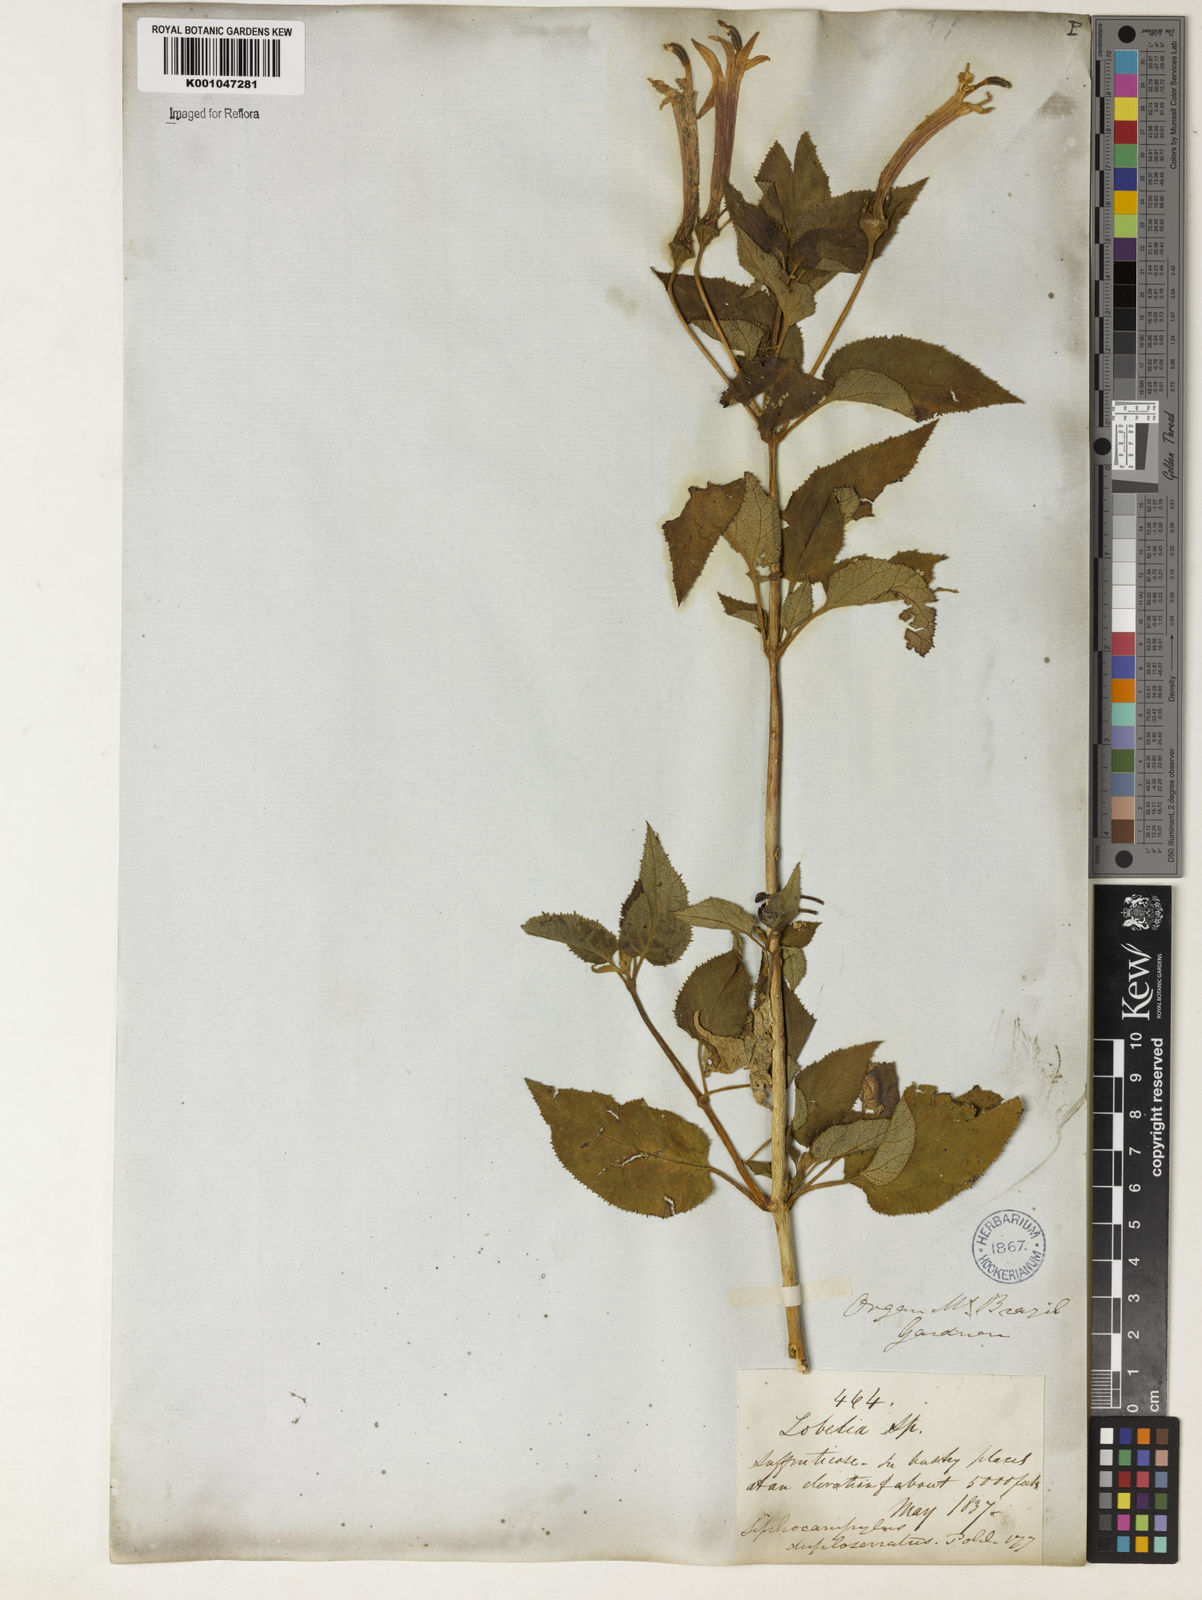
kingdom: Plantae
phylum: Tracheophyta
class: Magnoliopsida
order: Asterales
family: Campanulaceae
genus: Siphocampylus
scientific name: Siphocampylus duploserratus
